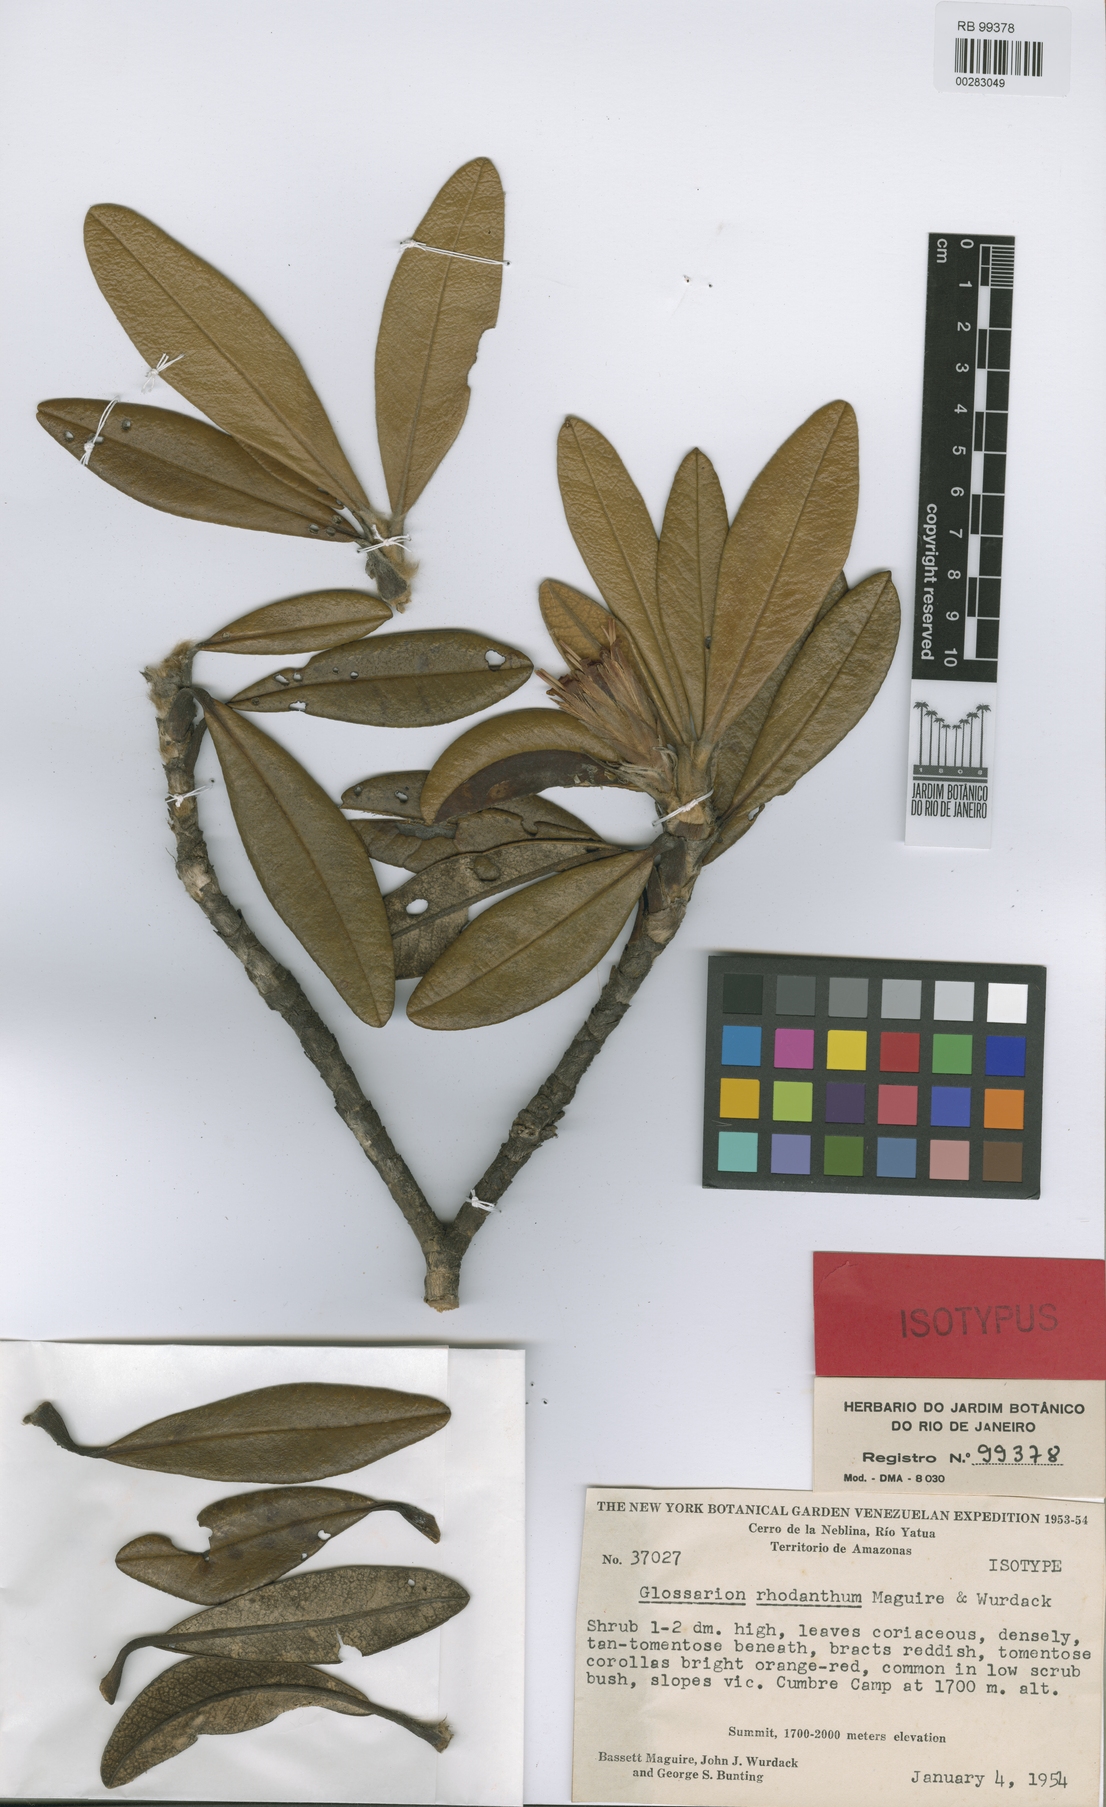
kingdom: Plantae
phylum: Tracheophyta
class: Magnoliopsida
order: Asterales
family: Asteraceae
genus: Glossarion
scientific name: Glossarion rhodanthum
